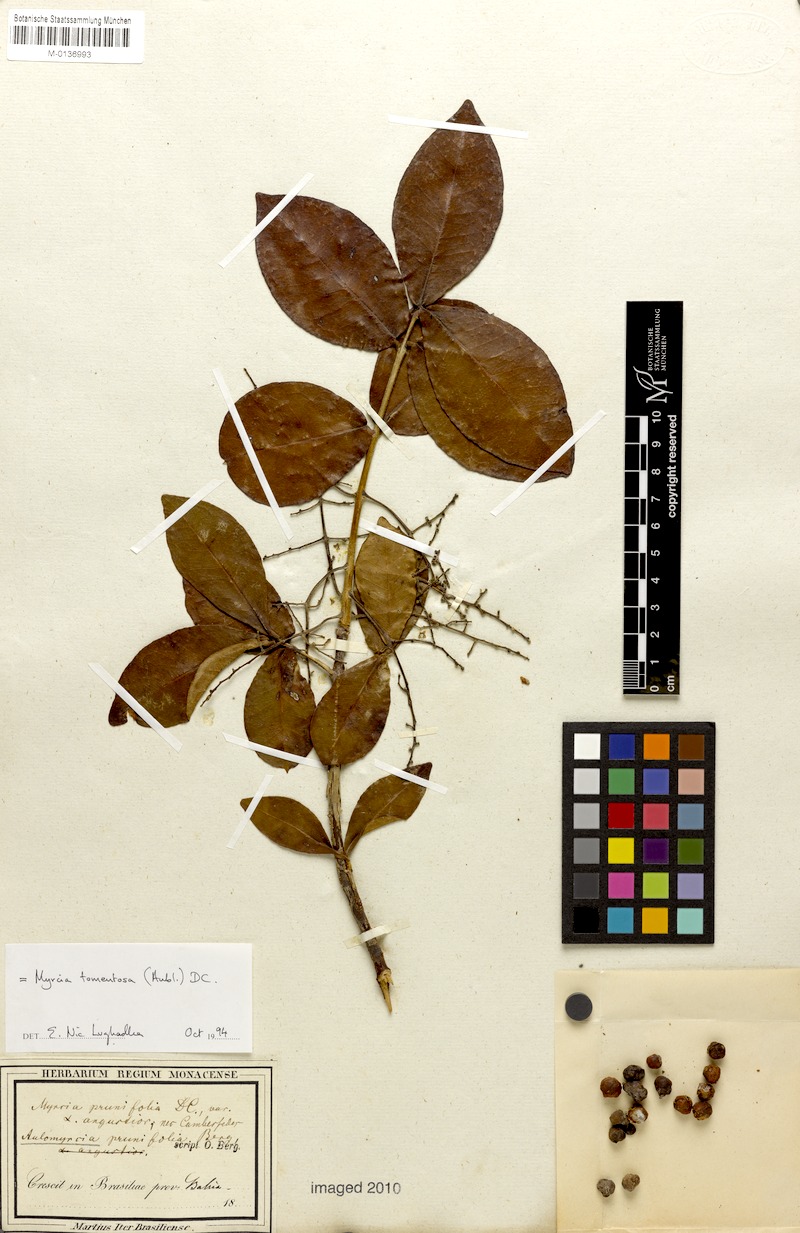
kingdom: Plantae
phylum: Tracheophyta
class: Magnoliopsida
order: Myrtales
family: Myrtaceae
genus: Myrcia
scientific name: Myrcia tomentosa
